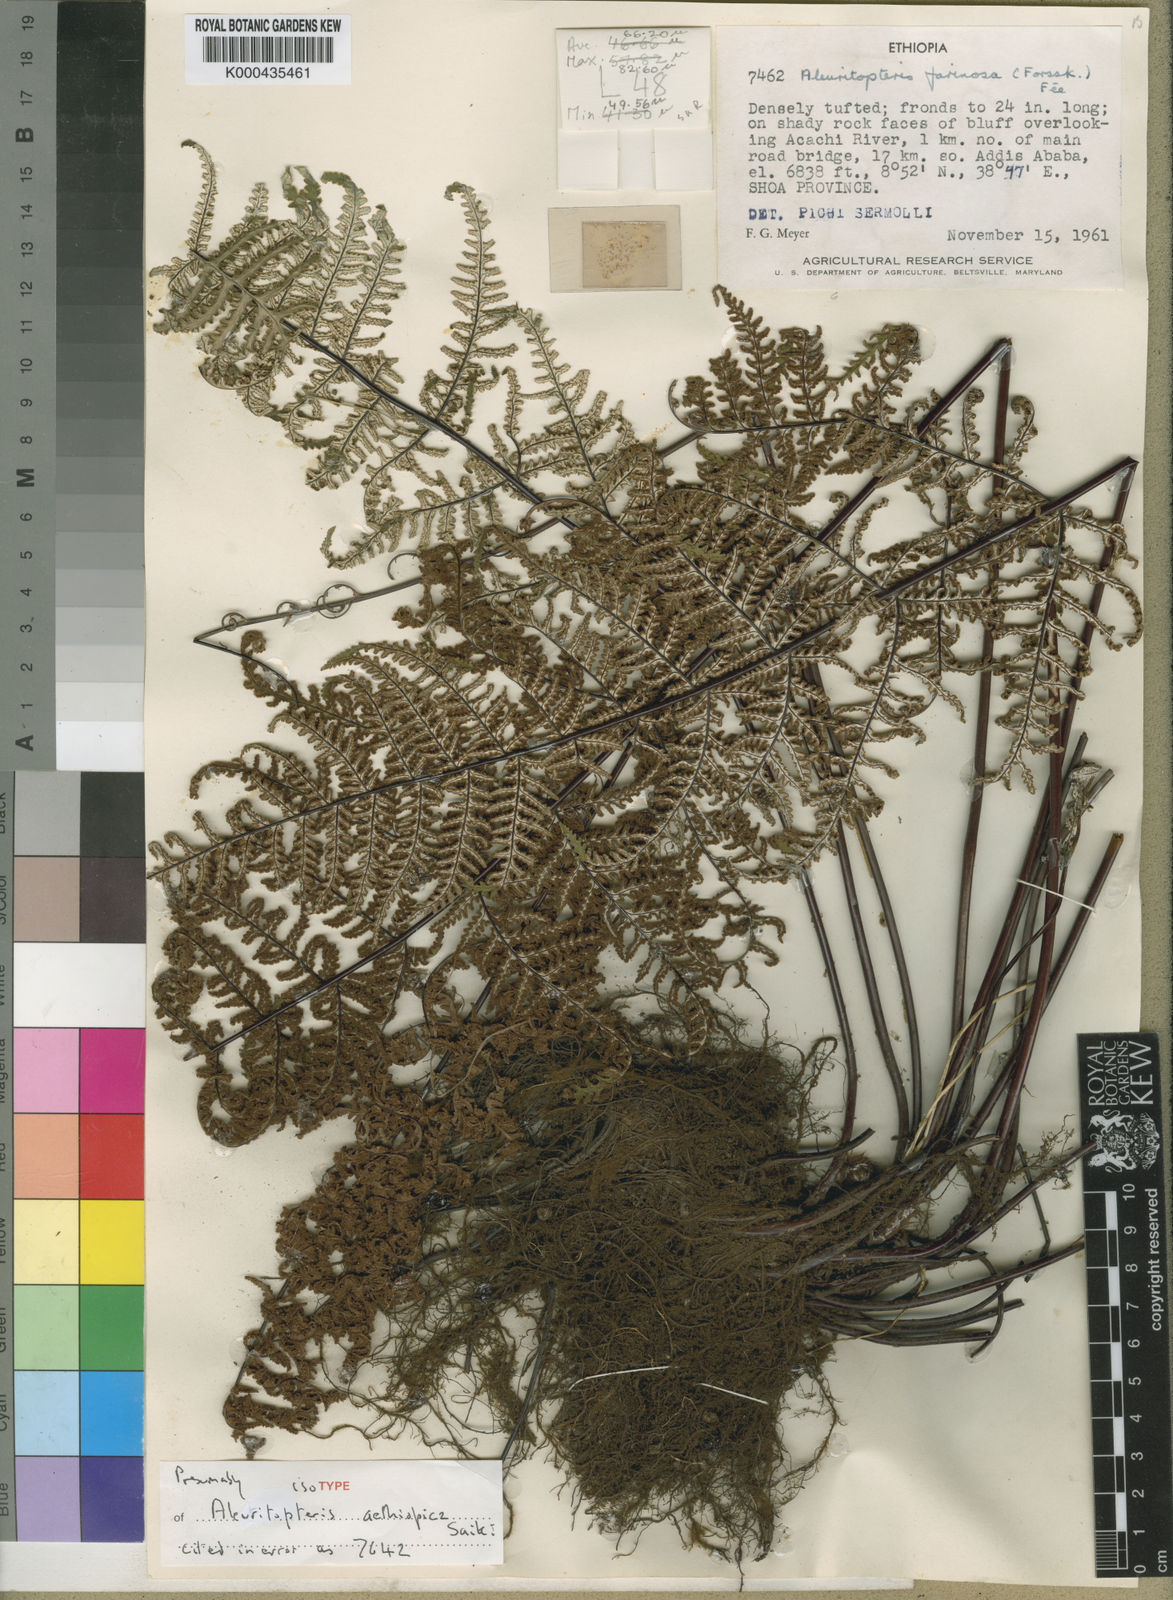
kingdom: Plantae
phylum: Tracheophyta
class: Polypodiopsida
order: Polypodiales
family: Pteridaceae
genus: Aleuritopteris
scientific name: Aleuritopteris farinosa
